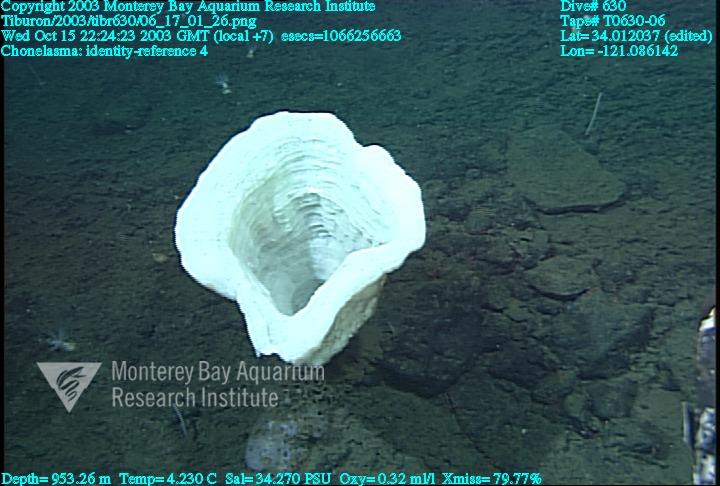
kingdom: Animalia
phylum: Porifera
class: Hexactinellida
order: Sceptrulophora
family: Euretidae
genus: Chonelasma
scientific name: Chonelasma
